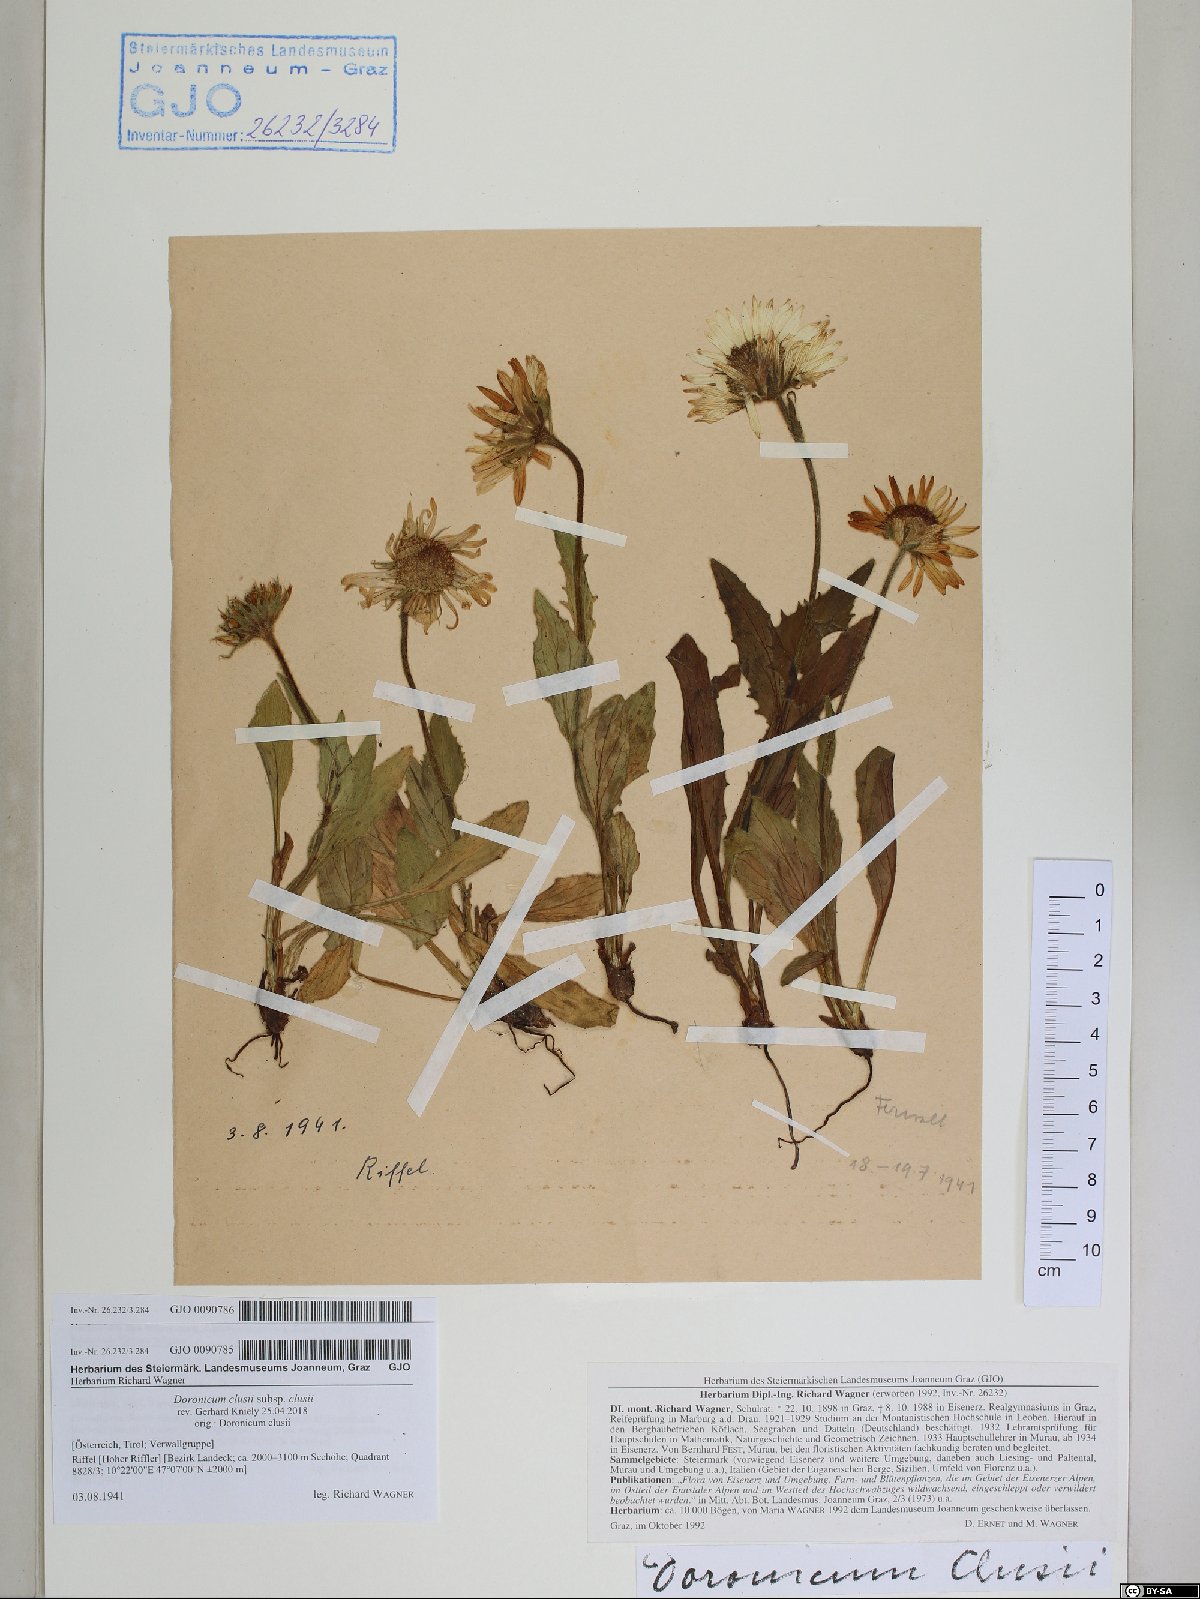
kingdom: Plantae
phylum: Tracheophyta
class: Magnoliopsida
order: Asterales
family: Asteraceae
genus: Doronicum
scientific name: Doronicum clusii
